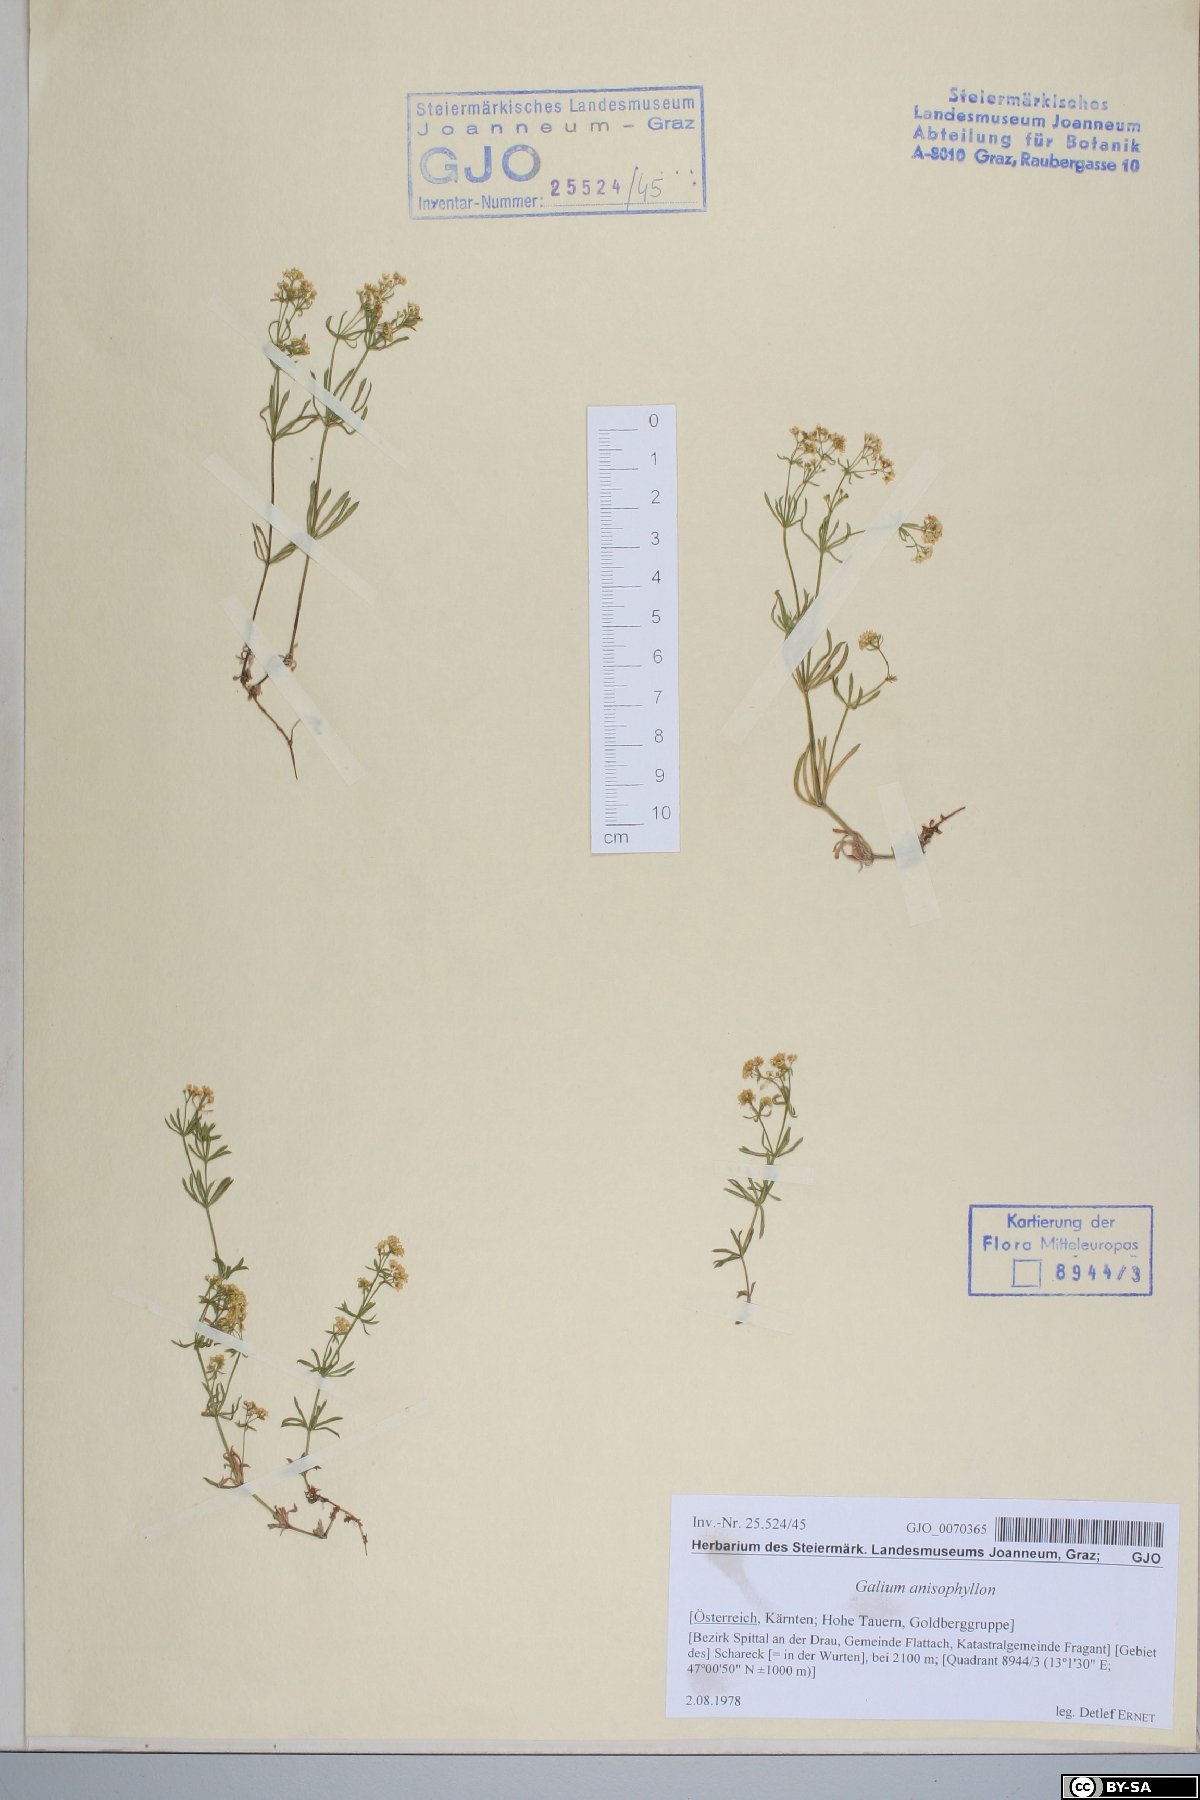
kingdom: Plantae
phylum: Tracheophyta
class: Magnoliopsida
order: Gentianales
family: Rubiaceae
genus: Galium
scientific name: Galium anisophyllon
